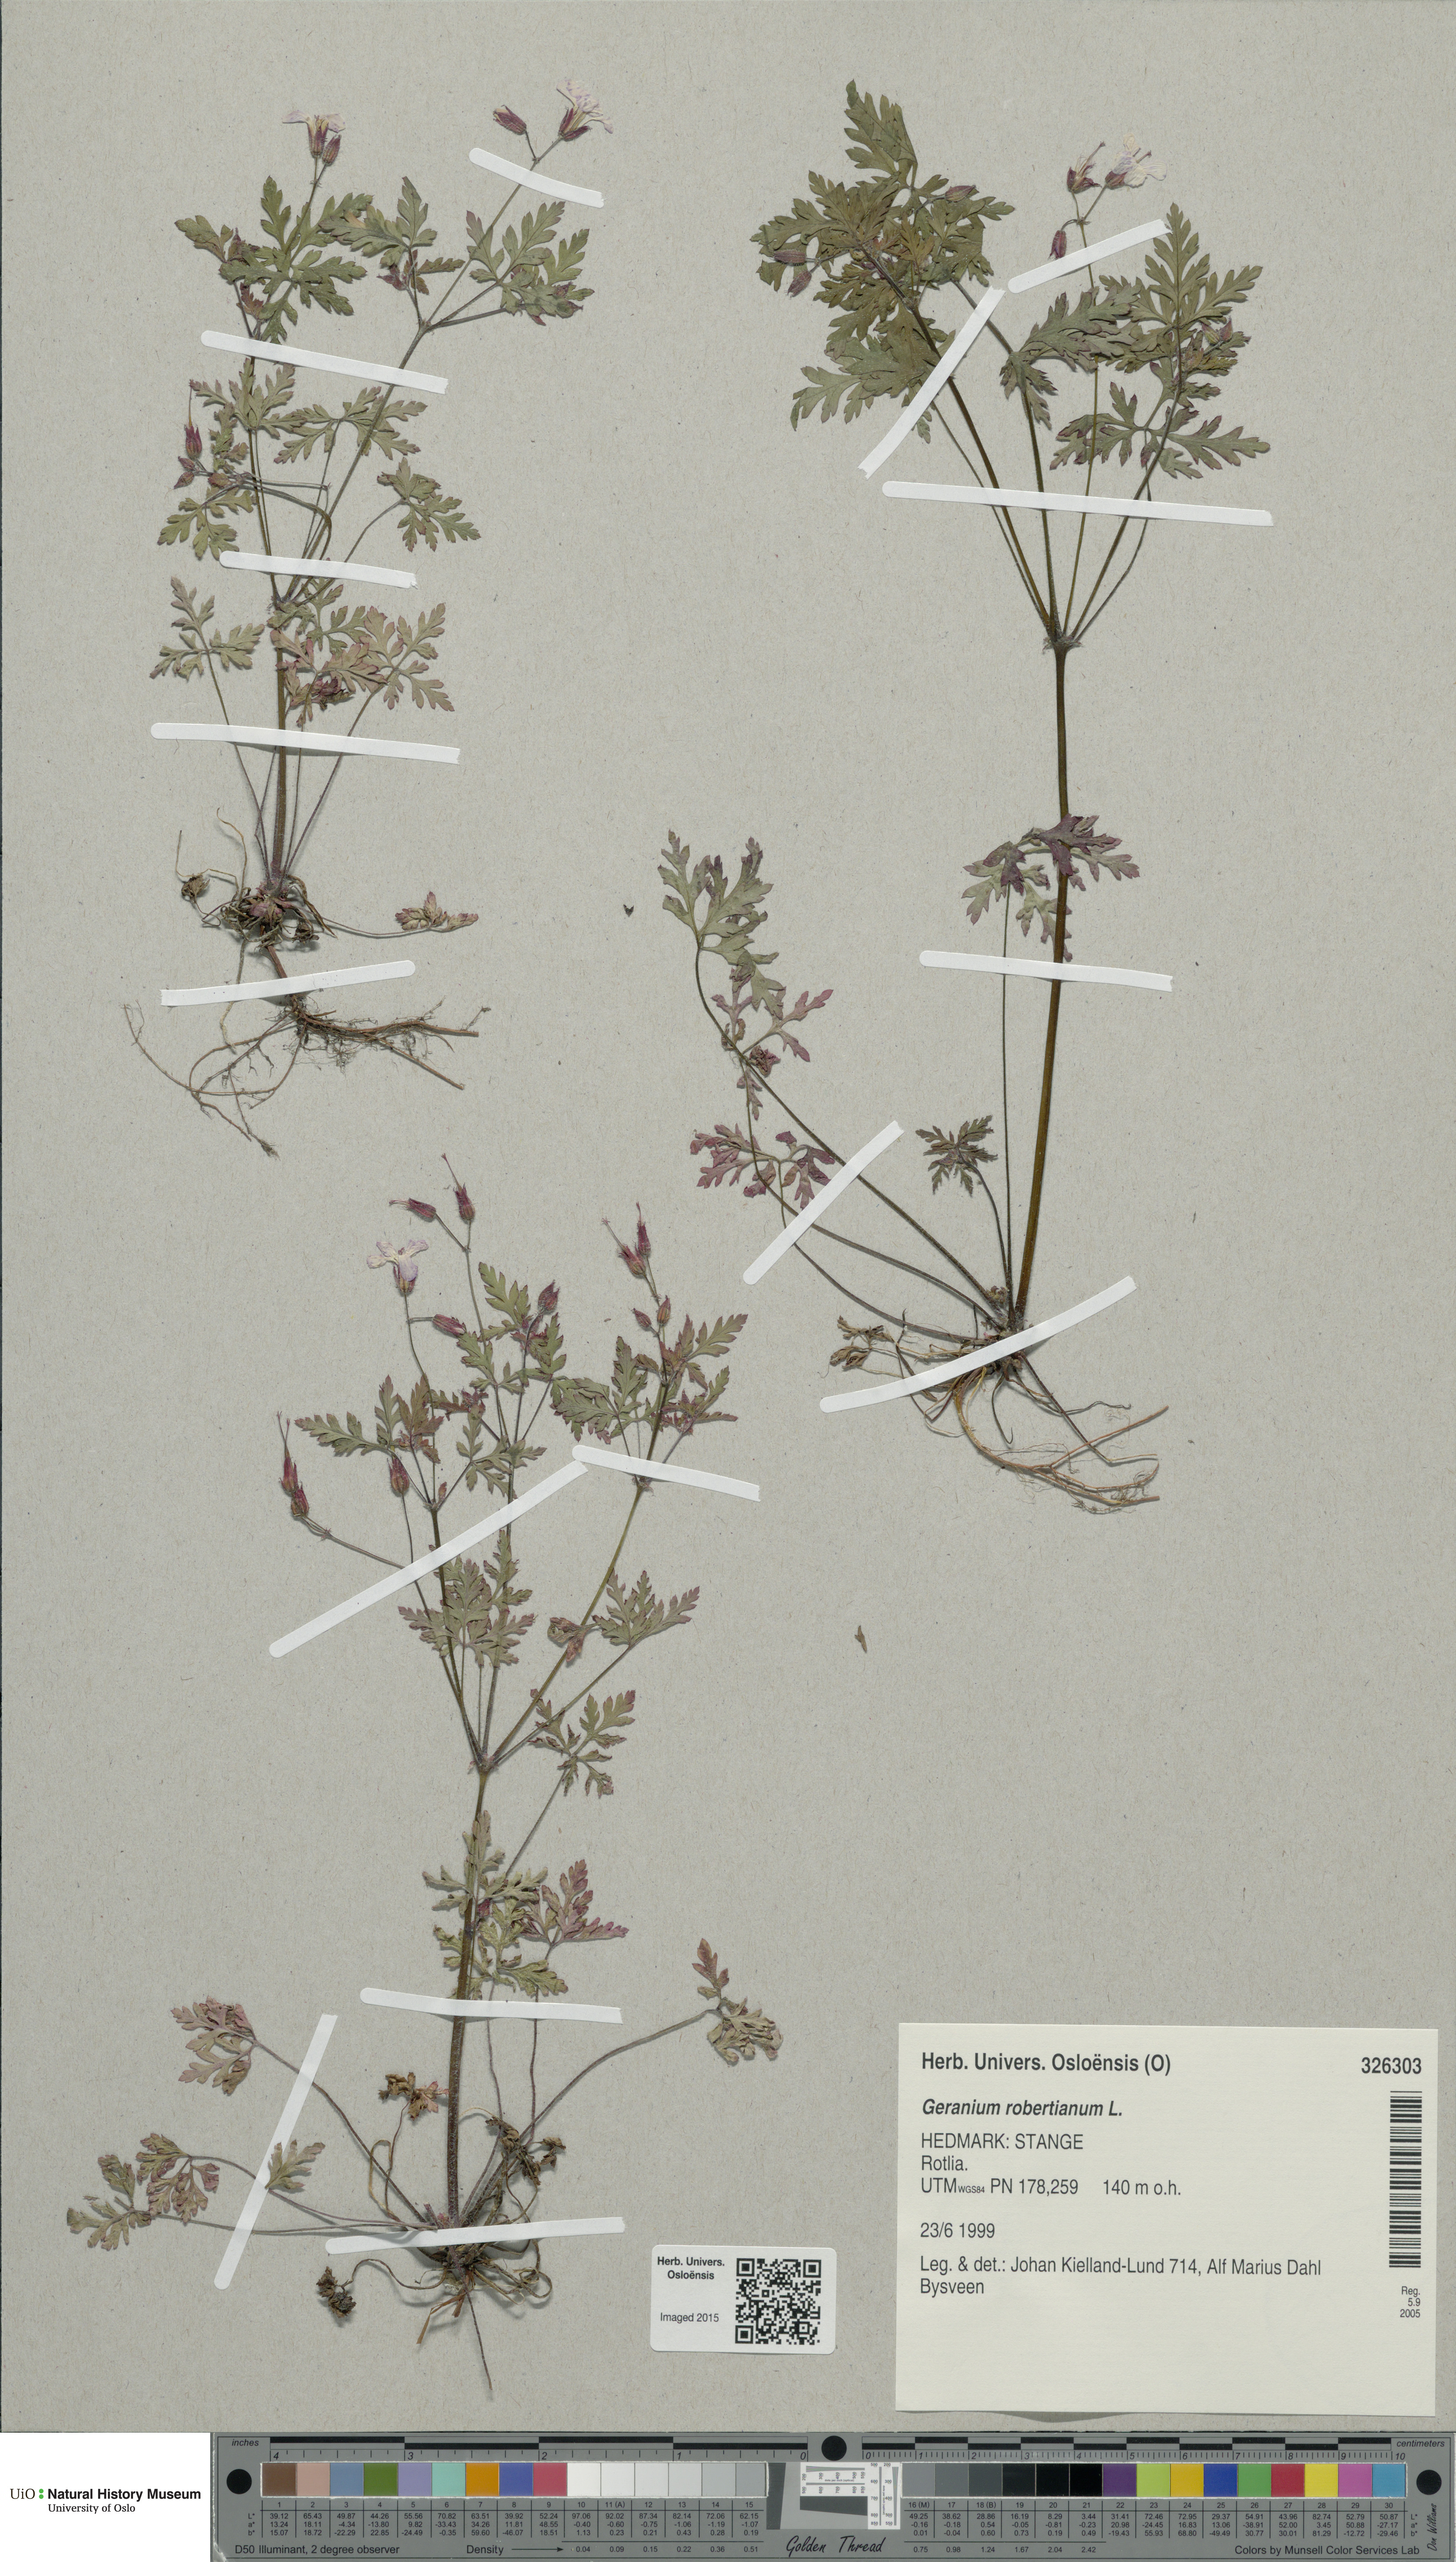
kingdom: Plantae
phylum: Tracheophyta
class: Magnoliopsida
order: Geraniales
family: Geraniaceae
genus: Geranium
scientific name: Geranium robertianum
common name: Herb-robert
